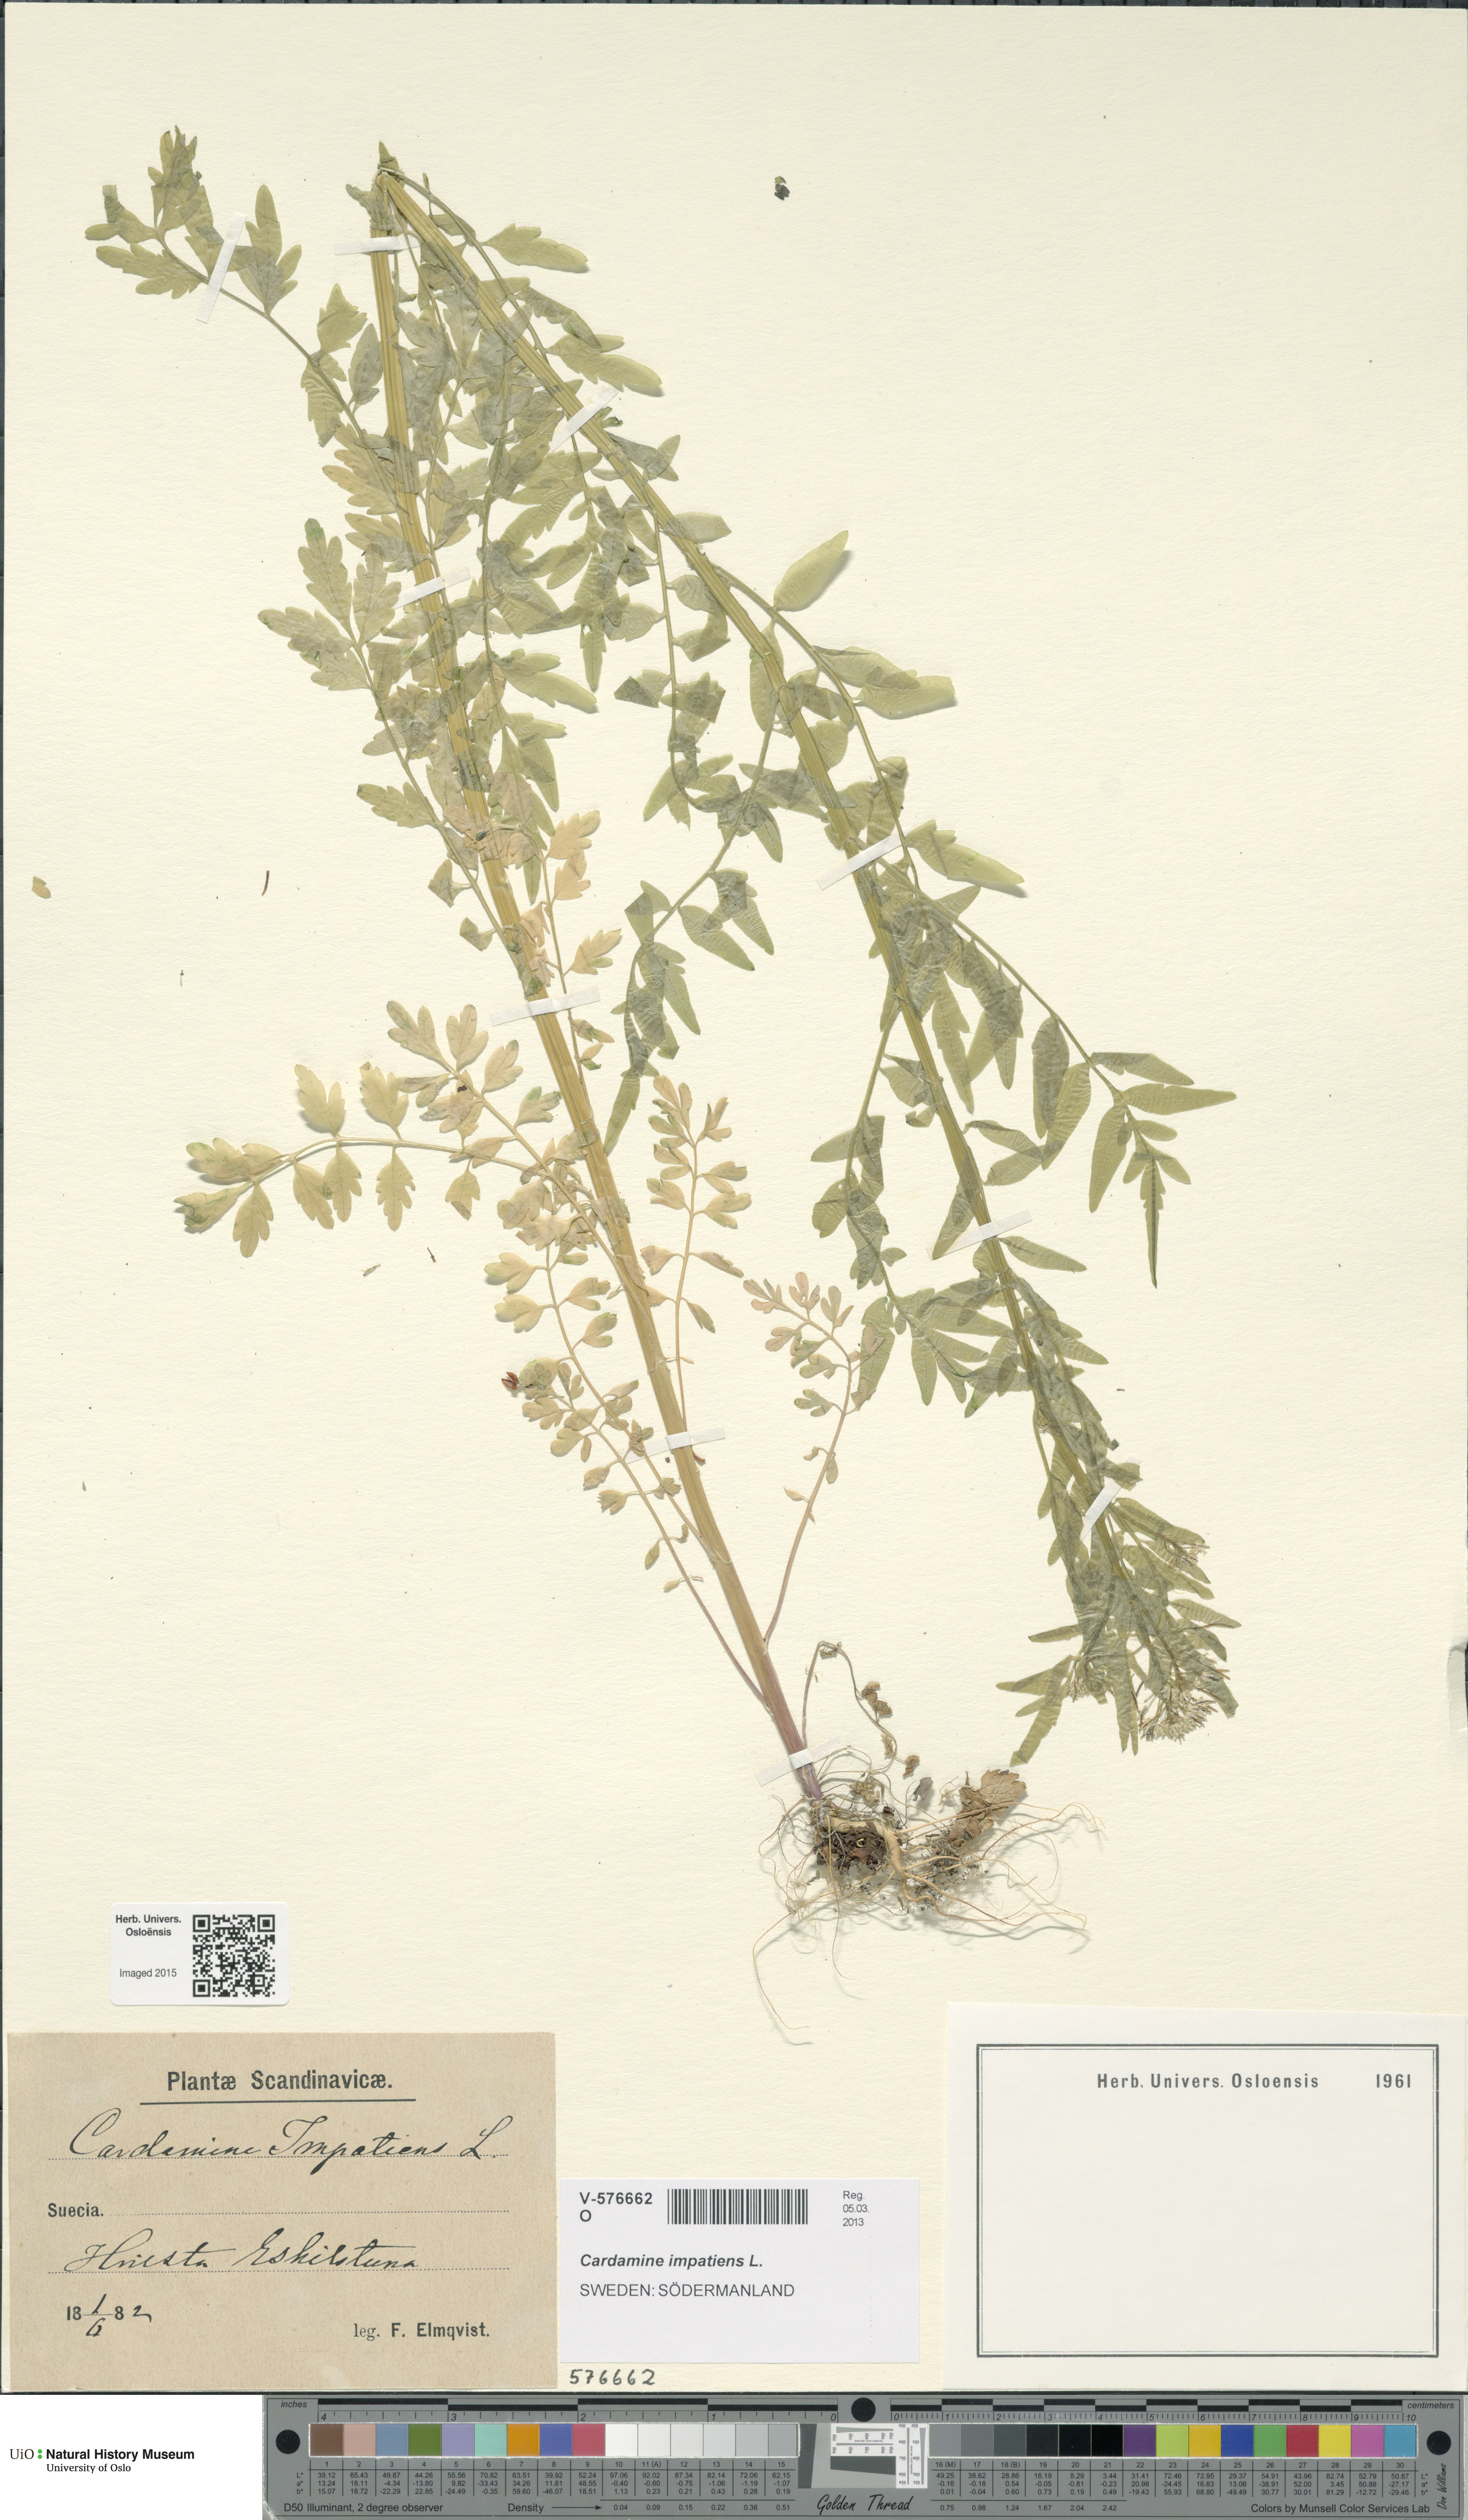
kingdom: Plantae
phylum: Tracheophyta
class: Magnoliopsida
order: Brassicales
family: Brassicaceae
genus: Cardamine
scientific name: Cardamine impatiens
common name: Narrow-leaved bitter-cress
